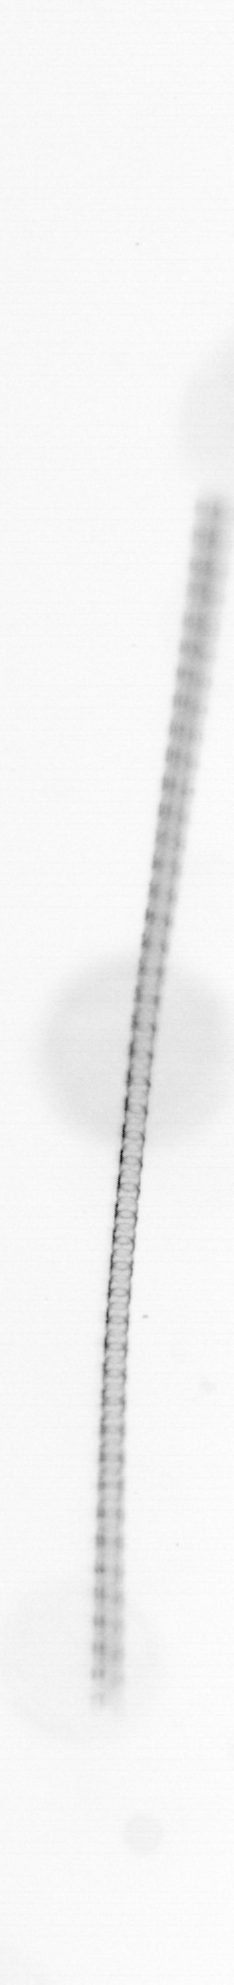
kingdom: Chromista
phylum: Ochrophyta
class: Bacillariophyceae
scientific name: Bacillariophyceae
